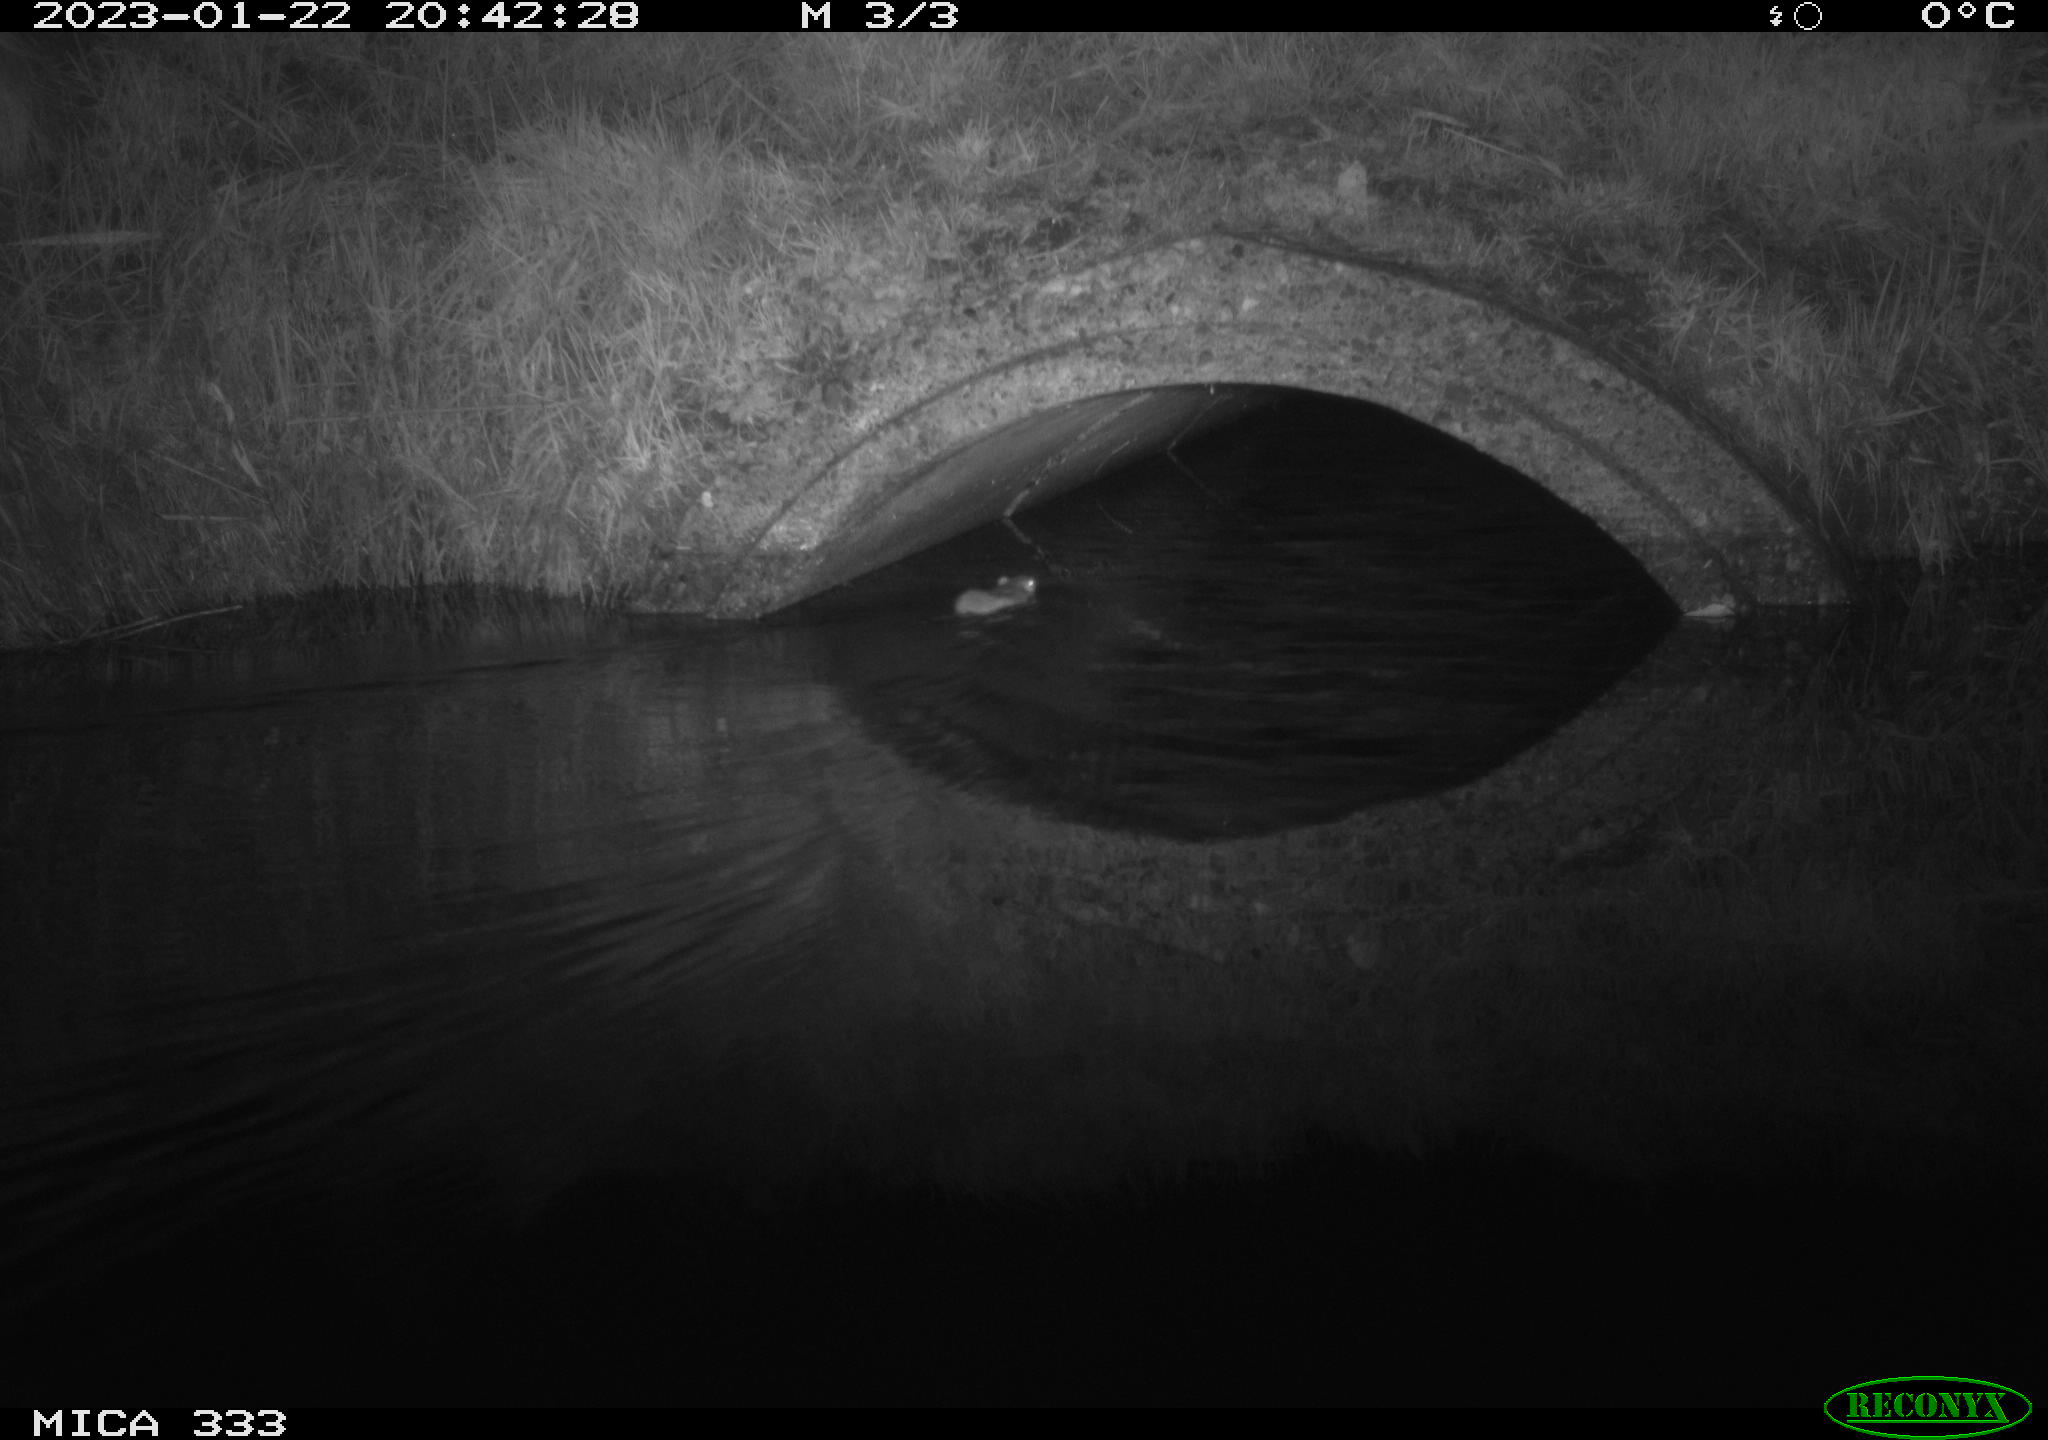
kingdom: Animalia
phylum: Chordata
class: Mammalia
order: Rodentia
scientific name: Rodentia
